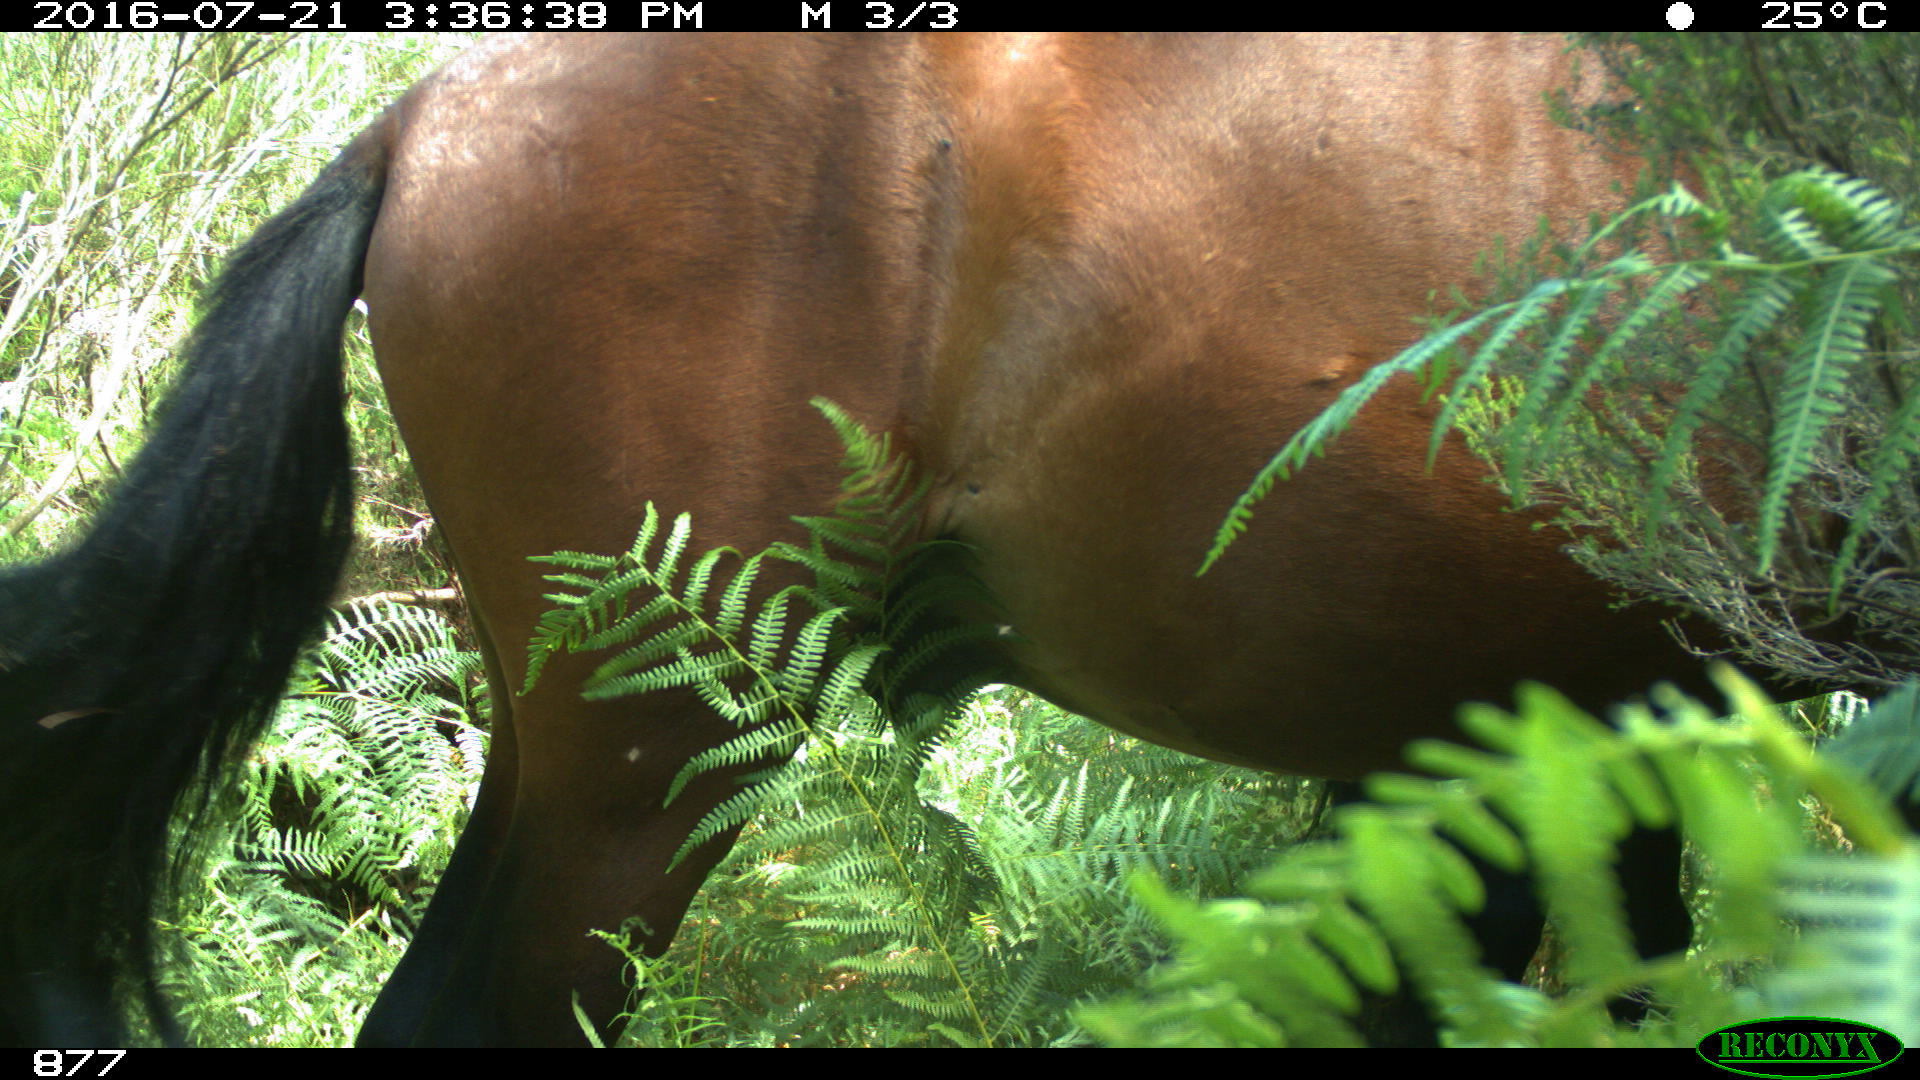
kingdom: Animalia
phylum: Chordata
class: Mammalia
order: Perissodactyla
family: Equidae
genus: Equus
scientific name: Equus caballus
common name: Horse
